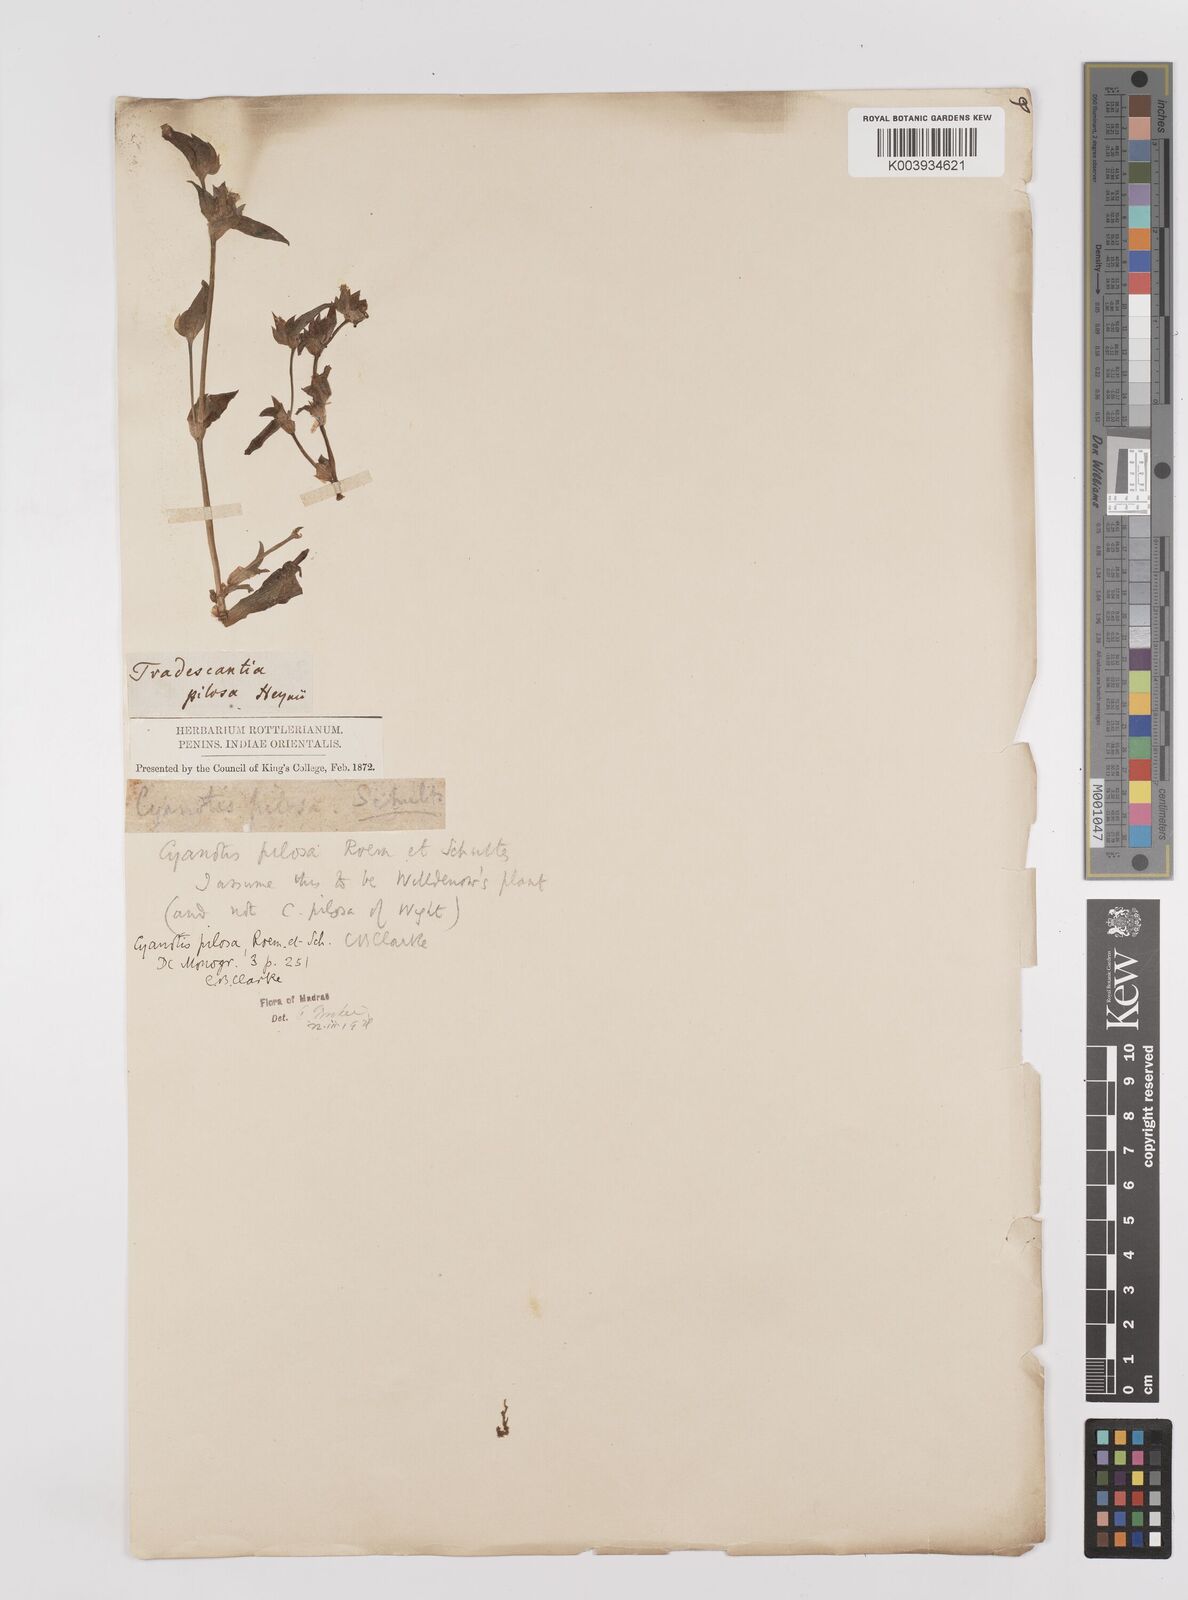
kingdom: Plantae
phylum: Tracheophyta
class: Liliopsida
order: Commelinales
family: Commelinaceae
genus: Cyanotis
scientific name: Cyanotis pilosa
